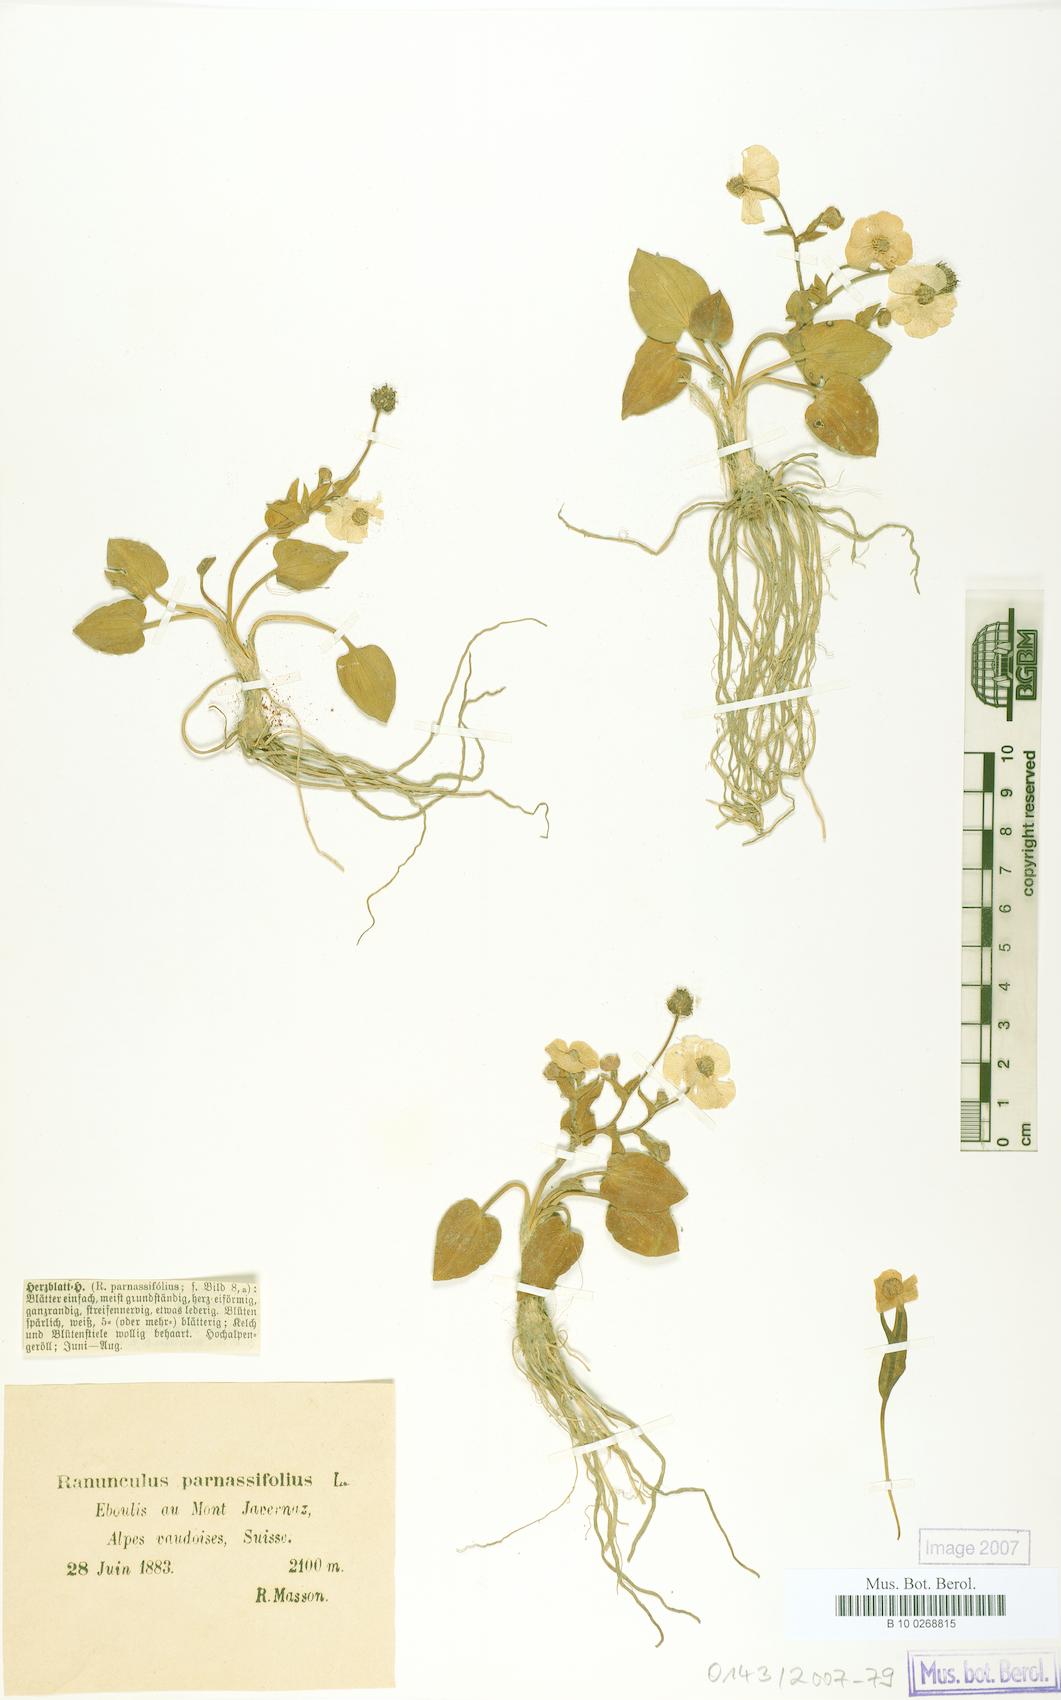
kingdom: Plantae
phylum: Tracheophyta
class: Magnoliopsida
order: Ranunculales
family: Ranunculaceae
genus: Ranunculus
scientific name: Ranunculus parnassiifolius
